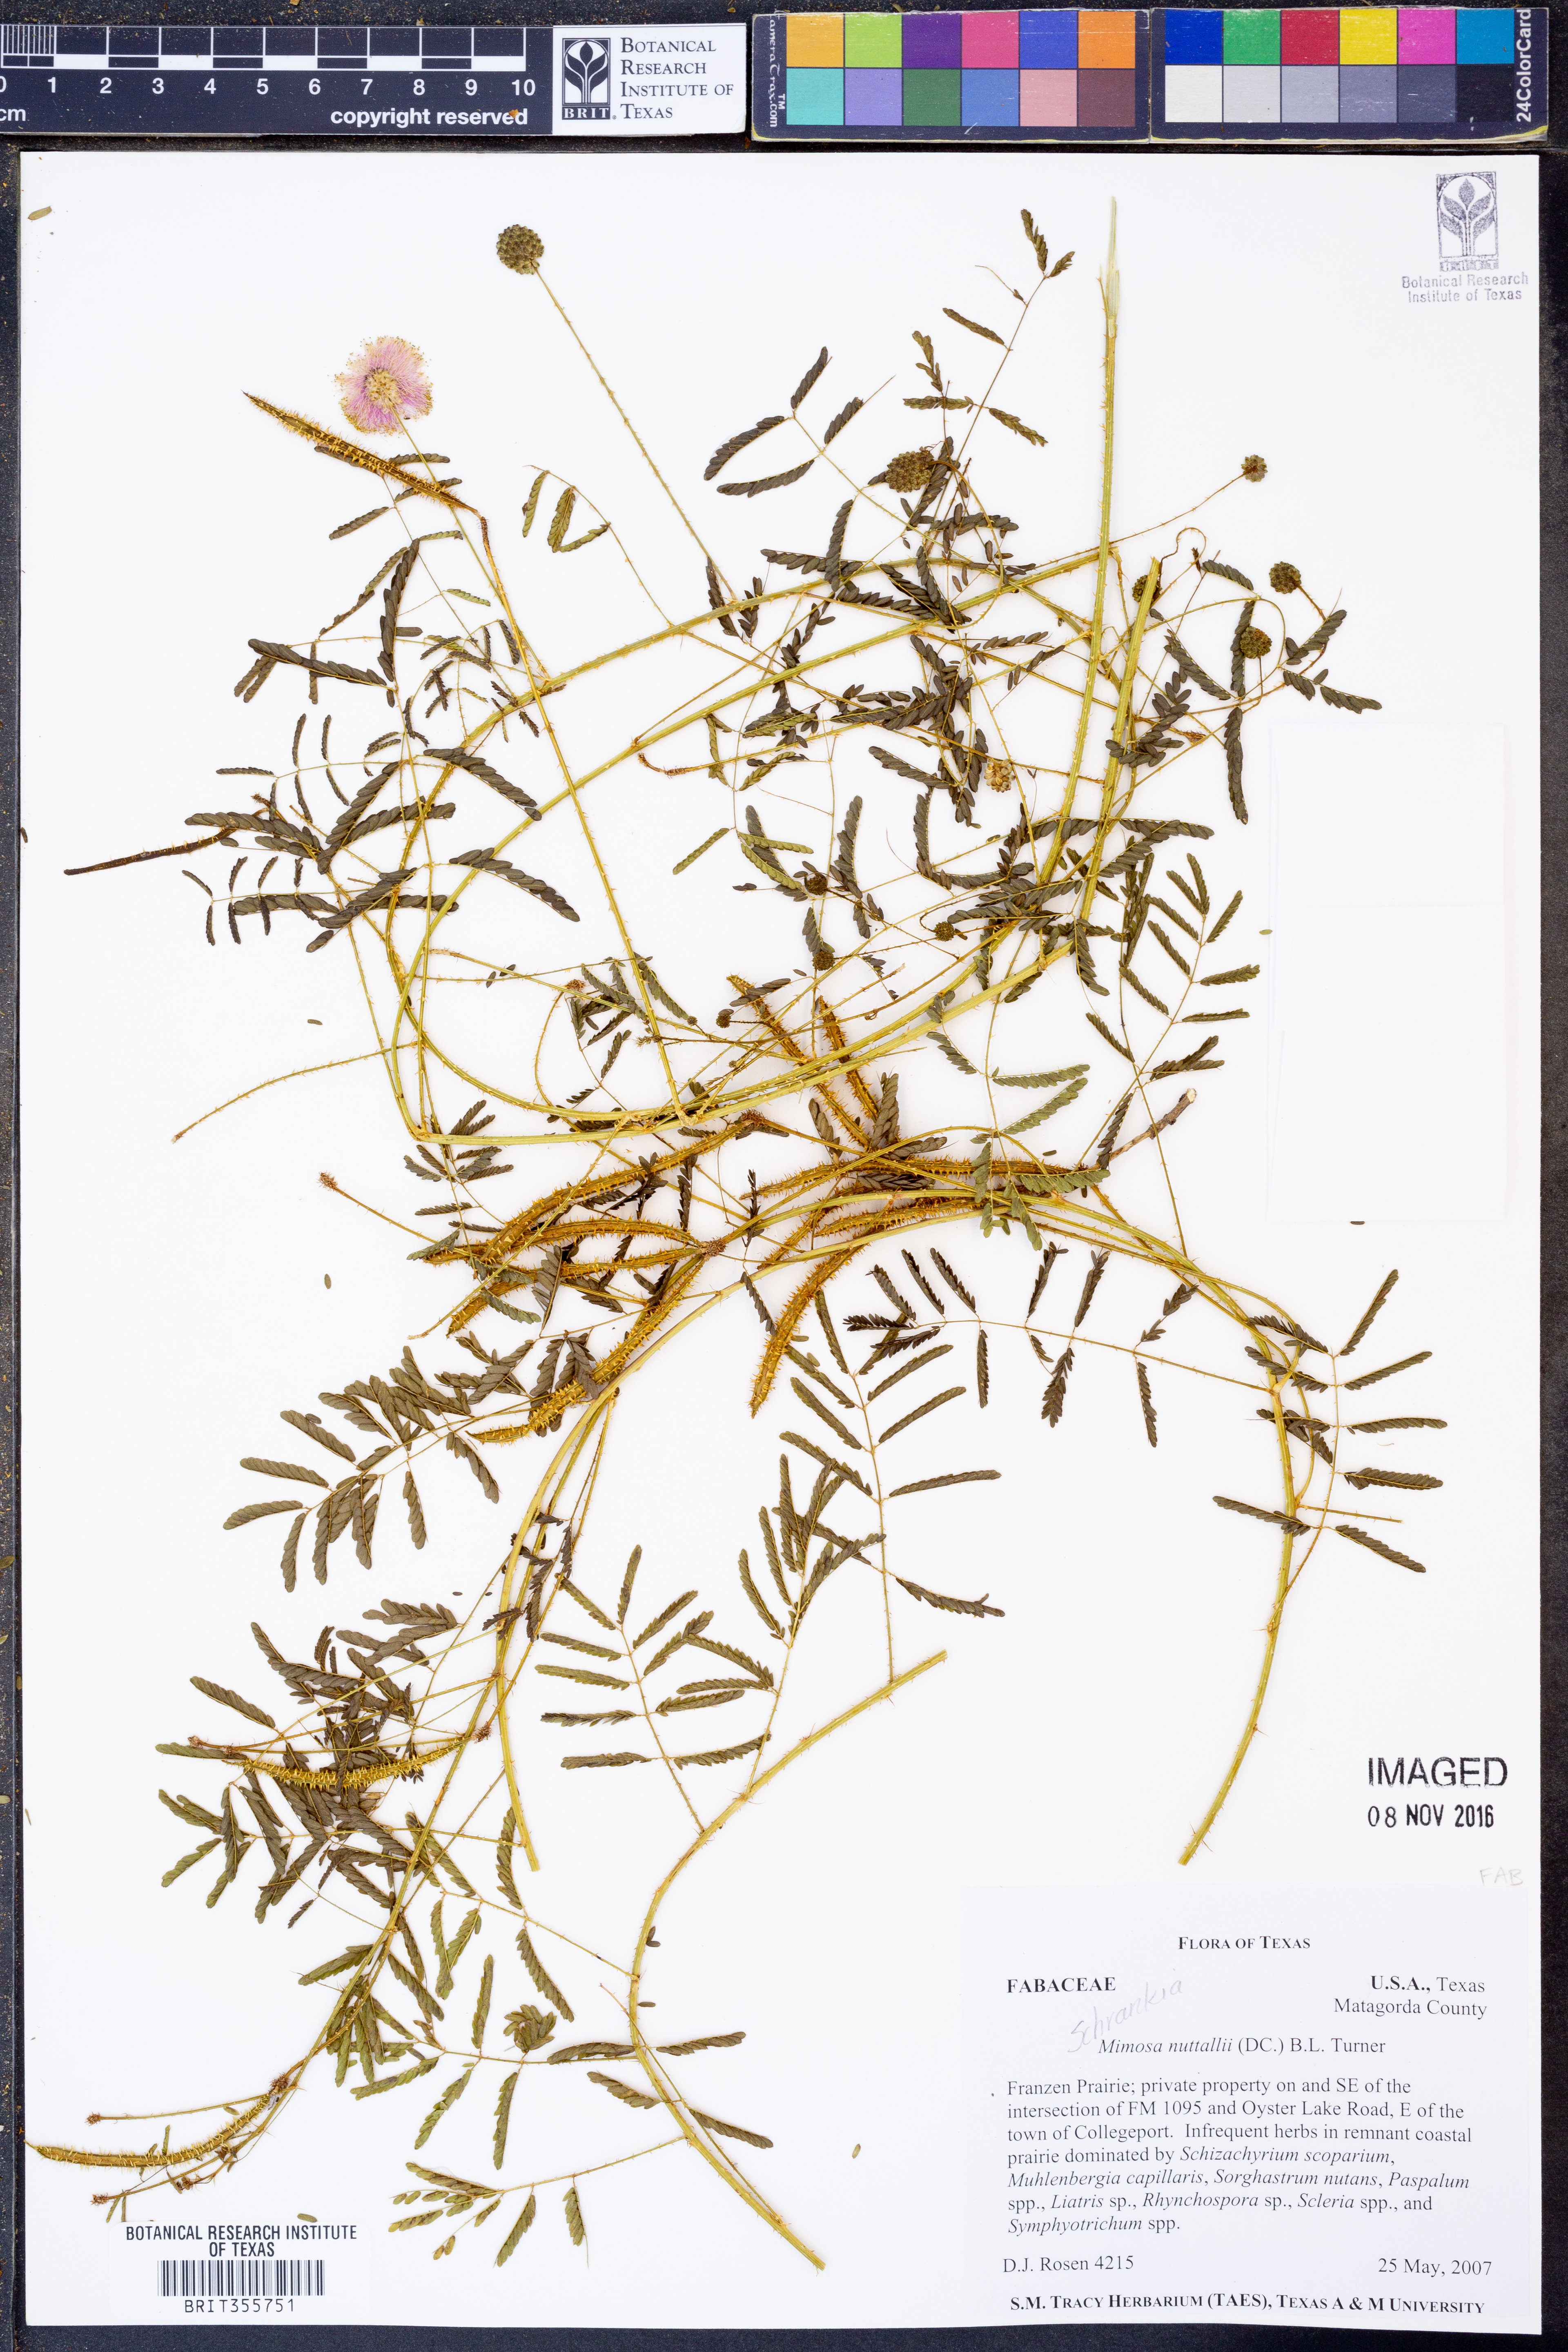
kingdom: Plantae
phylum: Tracheophyta
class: Magnoliopsida
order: Fabales
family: Fabaceae
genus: Mimosa
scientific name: Mimosa quadrivalvis
